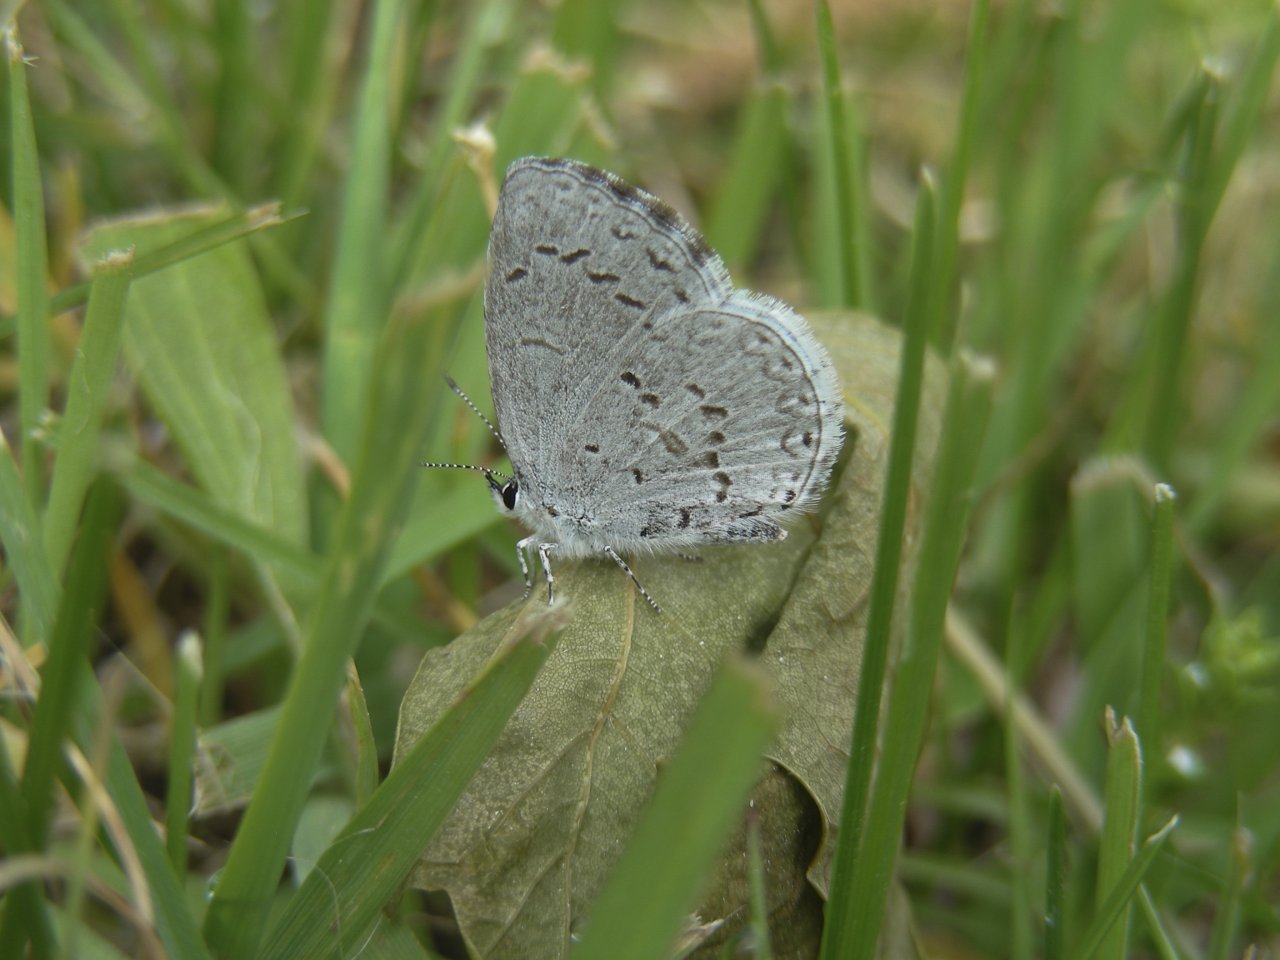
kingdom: Animalia
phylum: Arthropoda
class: Insecta
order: Lepidoptera
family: Lycaenidae
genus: Celastrina
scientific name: Celastrina lucia
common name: Northern Spring Azure
